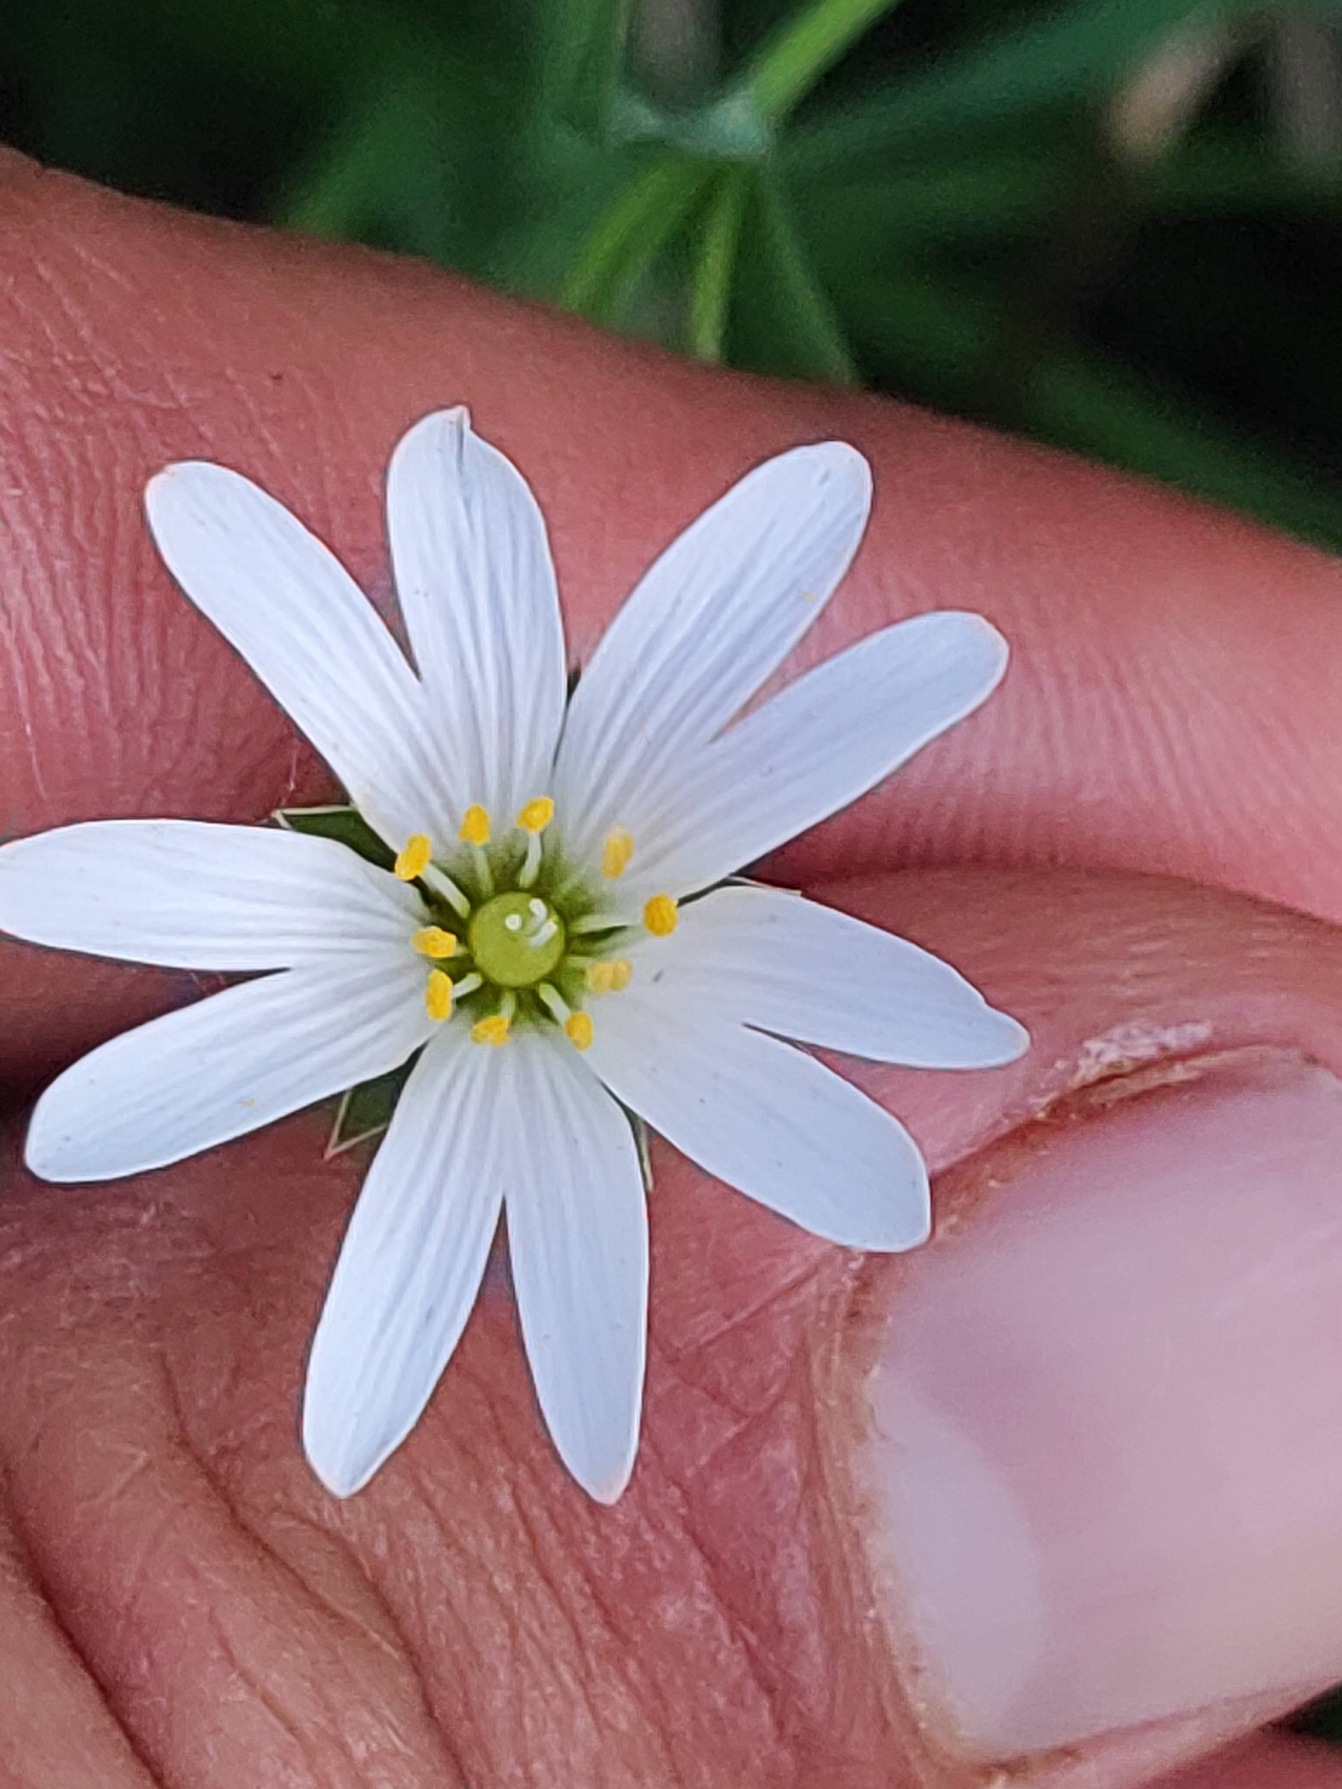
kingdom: Plantae
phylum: Tracheophyta
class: Magnoliopsida
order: Caryophyllales
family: Caryophyllaceae
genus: Rabelera
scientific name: Rabelera holostea
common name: Stor fladstjerne
